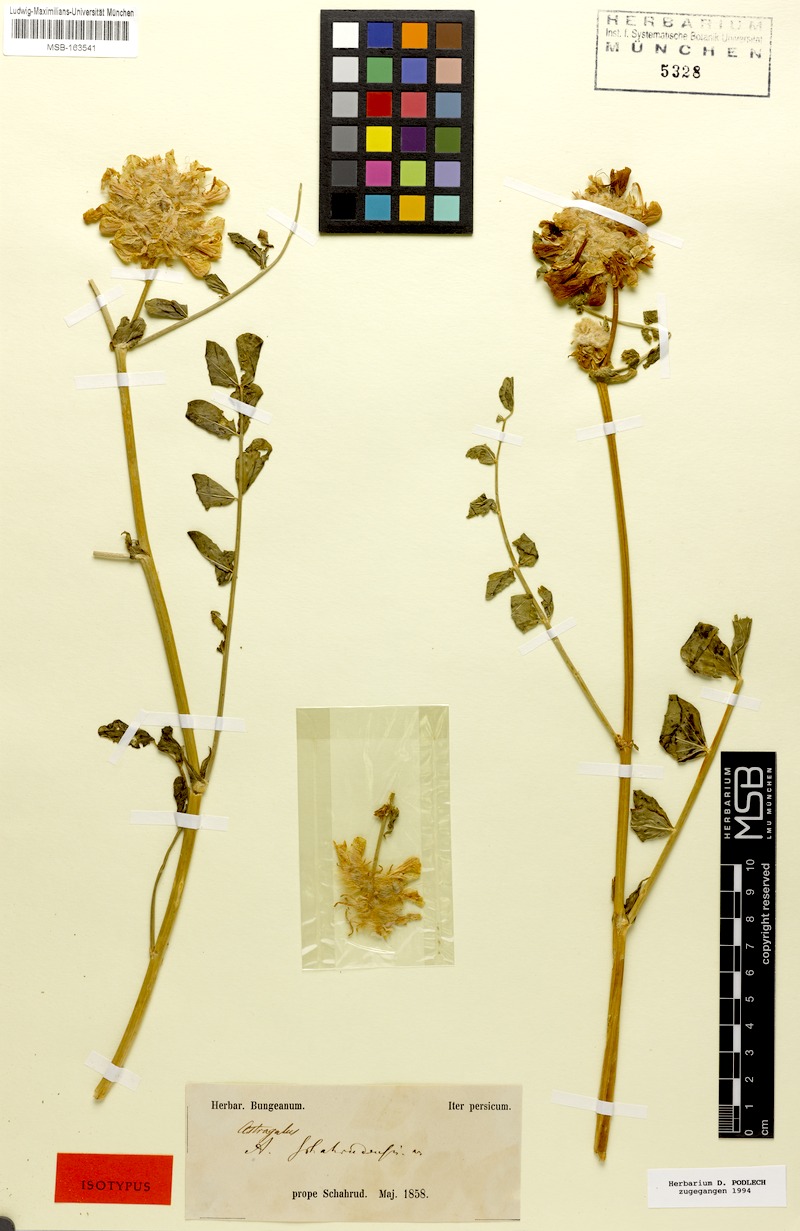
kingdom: Plantae
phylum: Tracheophyta
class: Magnoliopsida
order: Fabales
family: Fabaceae
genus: Astragalus
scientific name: Astragalus schahrudensis
